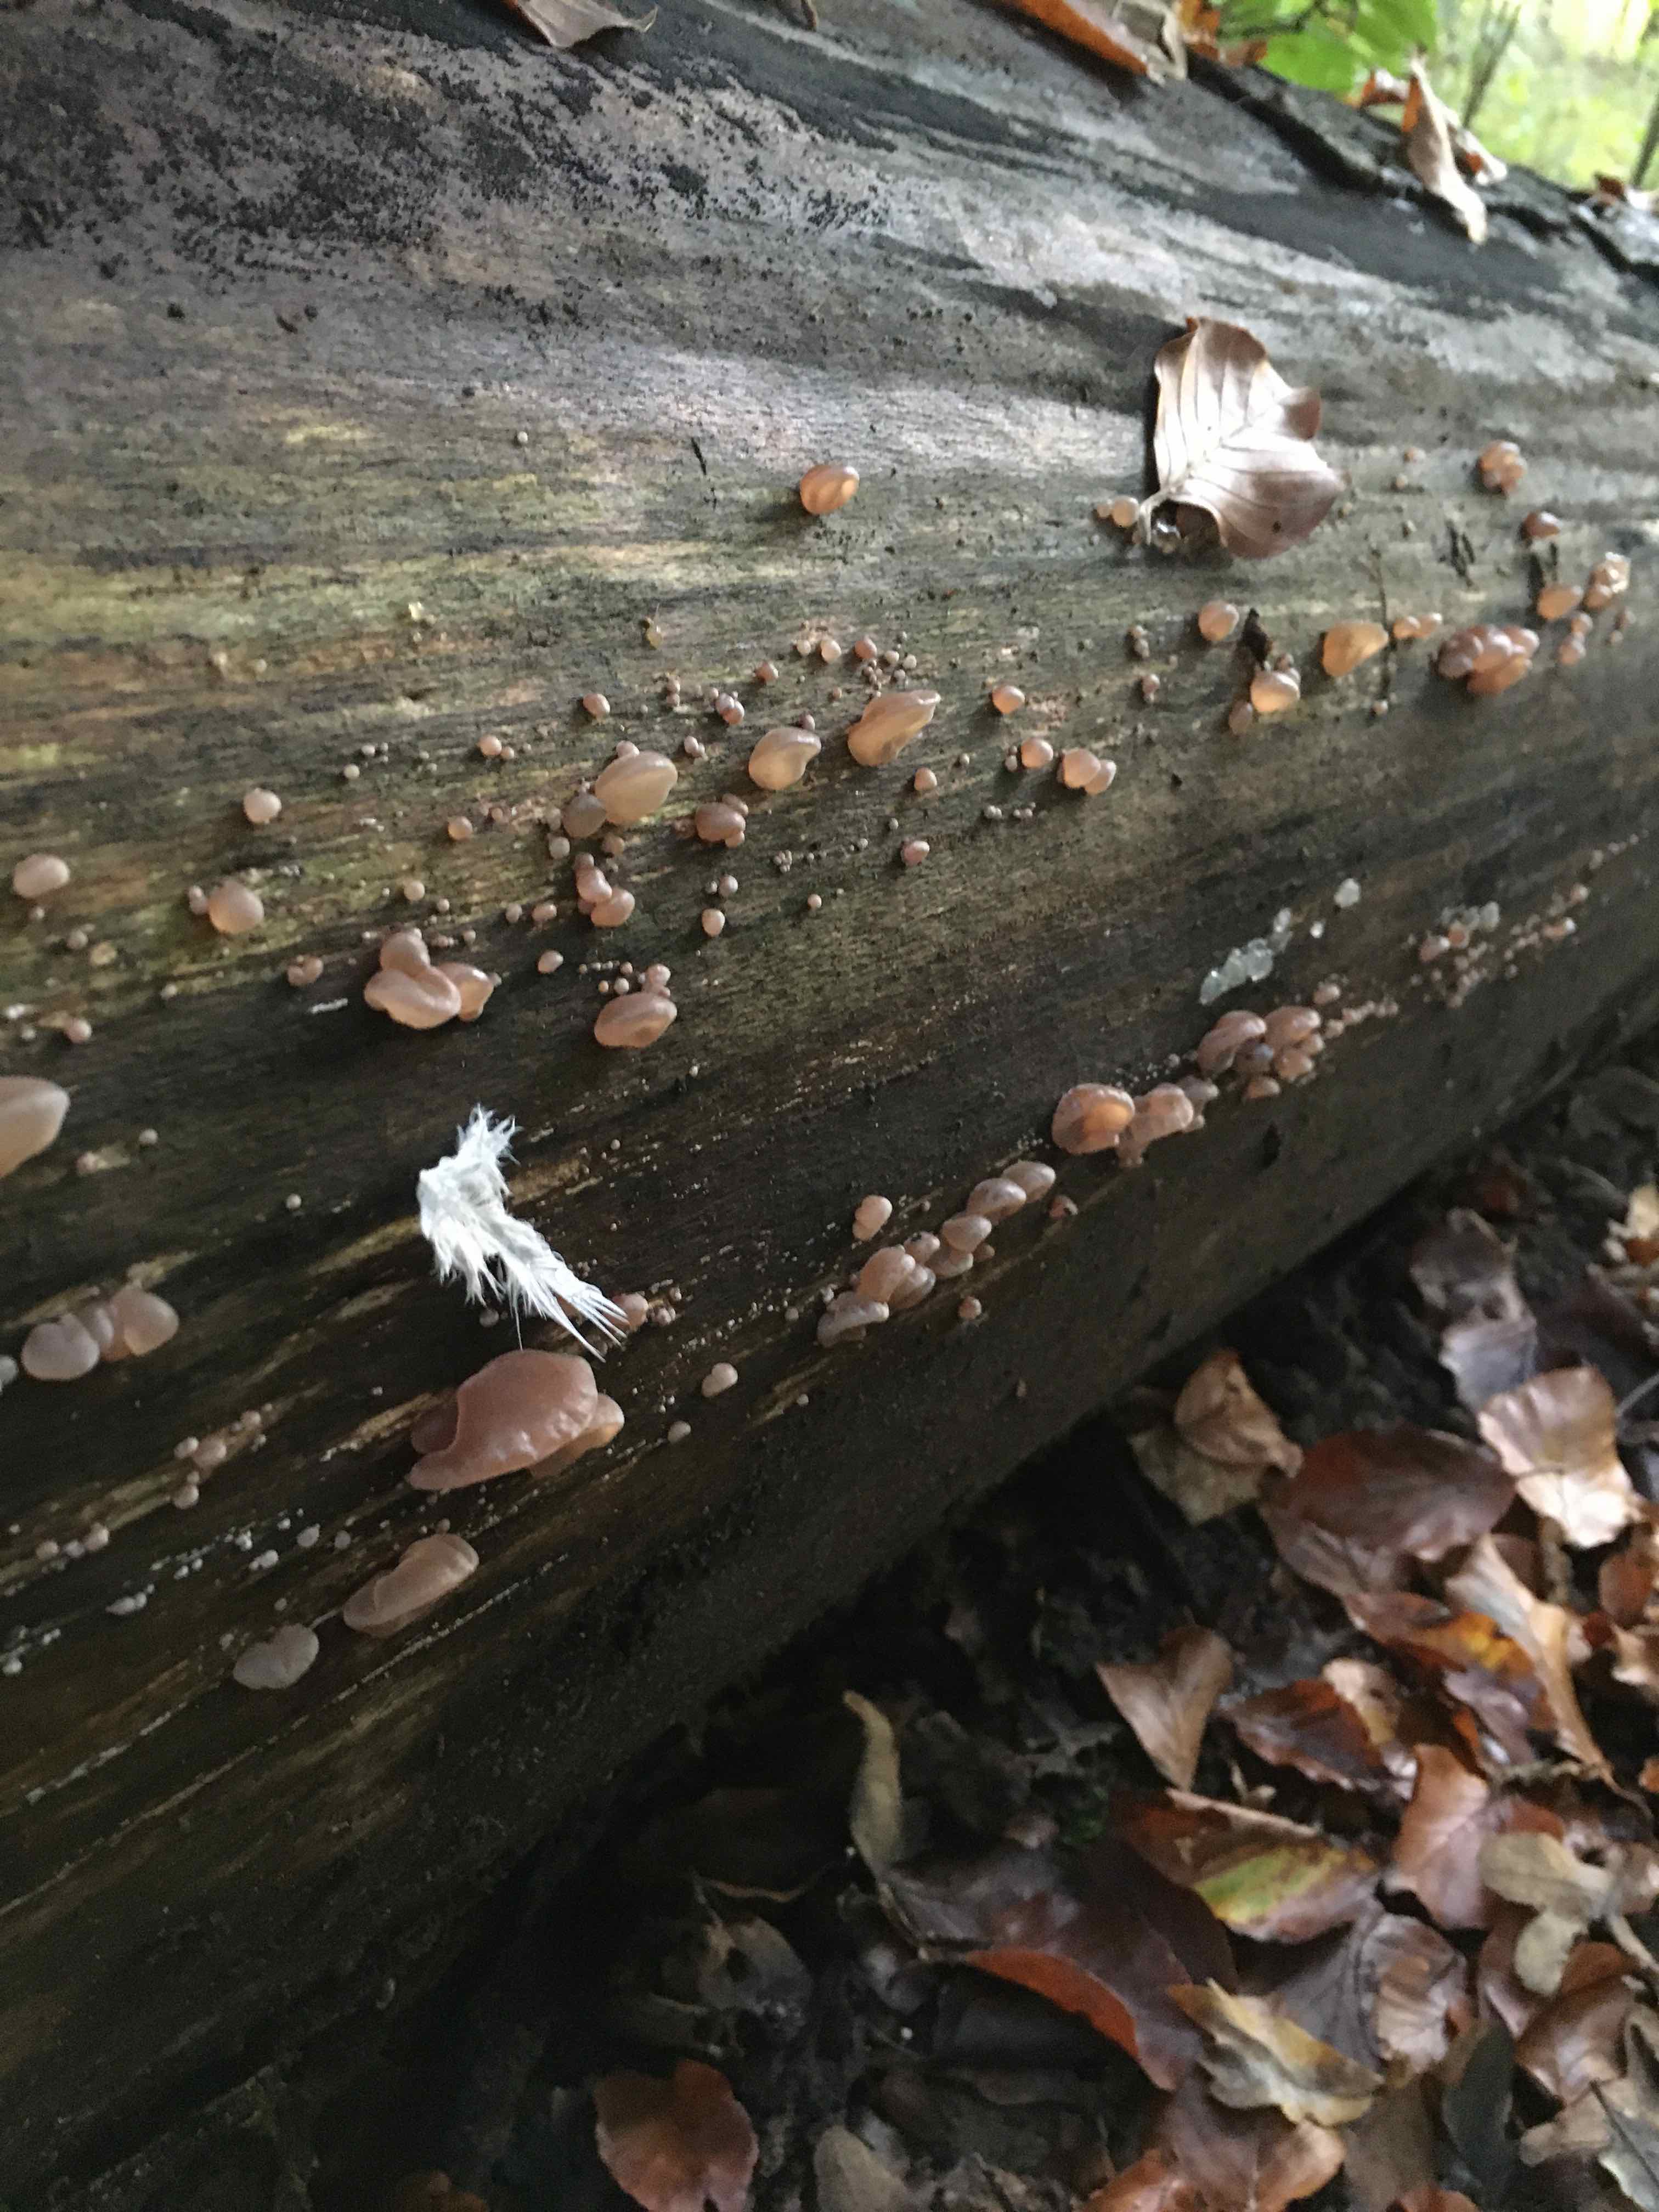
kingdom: Fungi
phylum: Basidiomycota
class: Agaricomycetes
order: Auriculariales
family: Auriculariaceae
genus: Auricularia
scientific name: Auricularia auricula-judae
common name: almindelig judasøre
